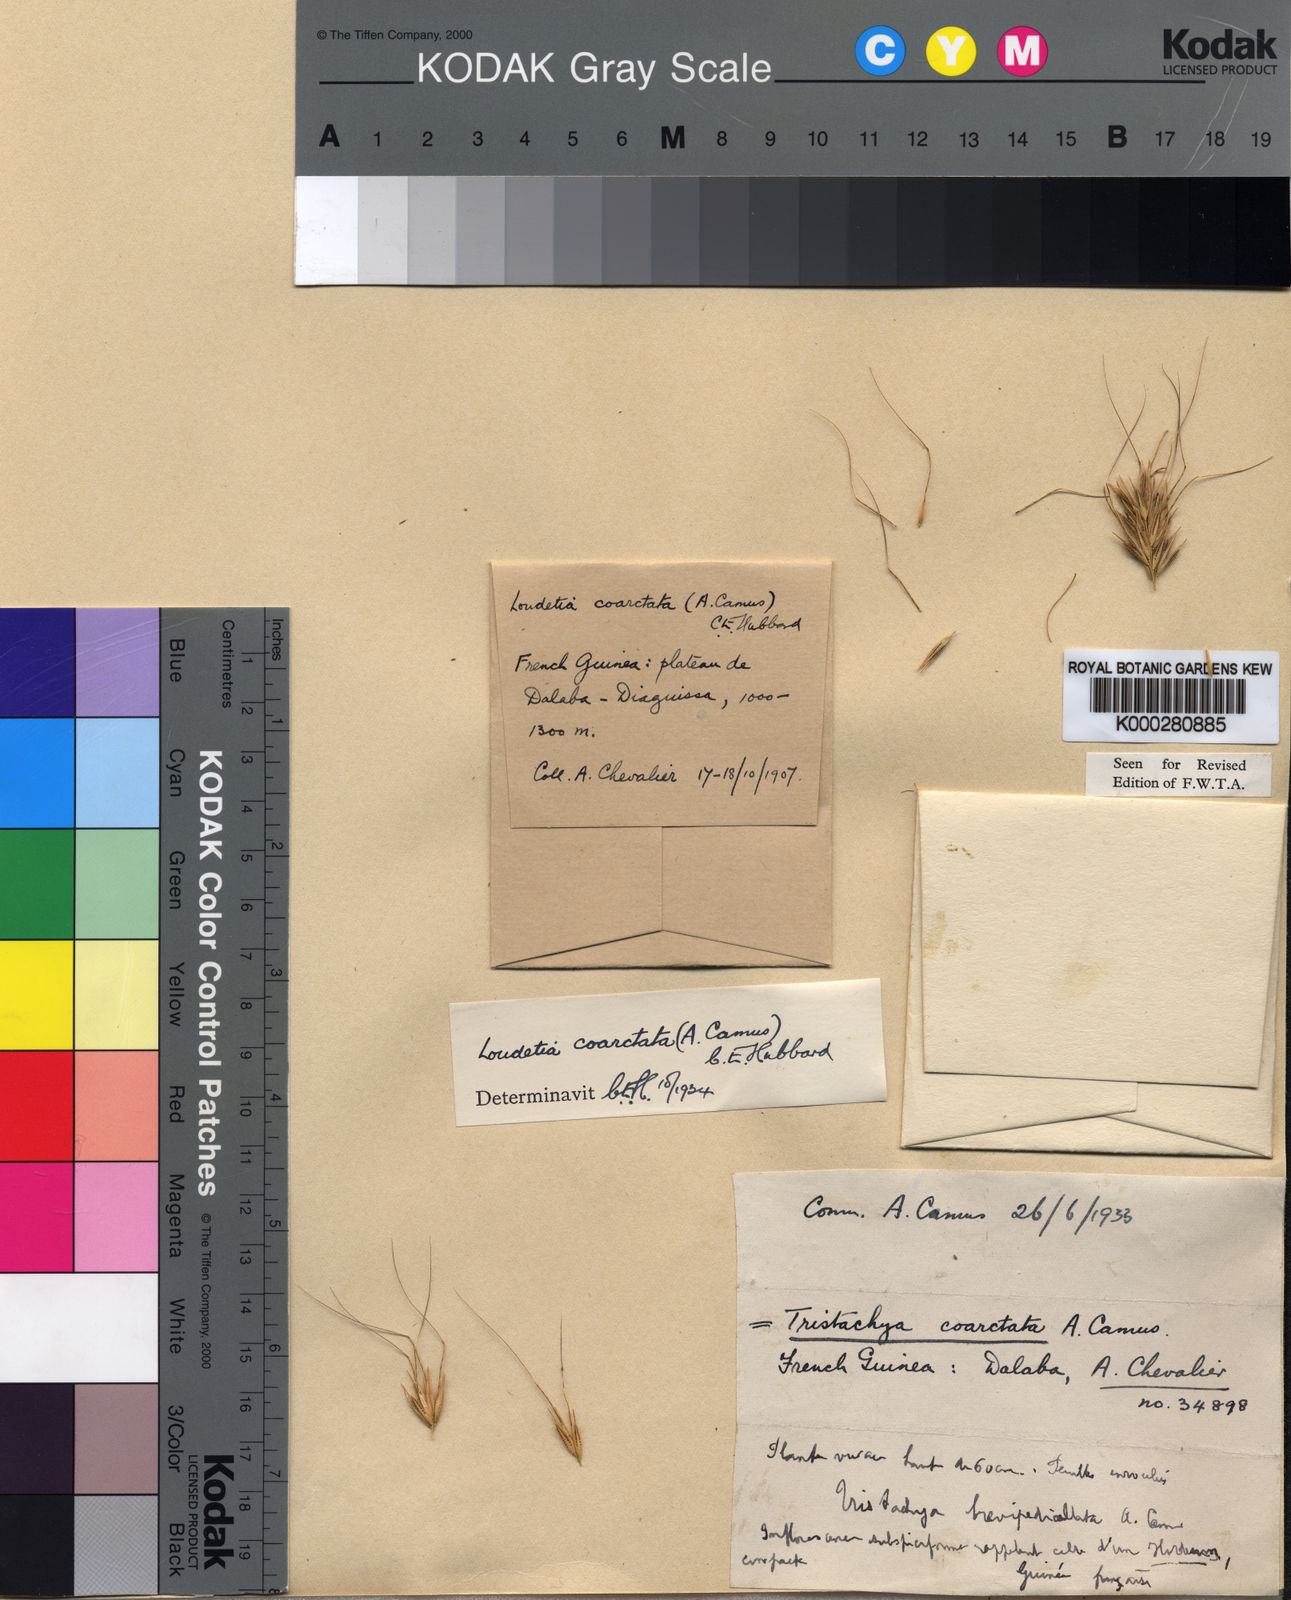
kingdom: Plantae
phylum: Tracheophyta
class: Liliopsida
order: Poales
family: Poaceae
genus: Loudetia
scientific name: Loudetia coarctata
